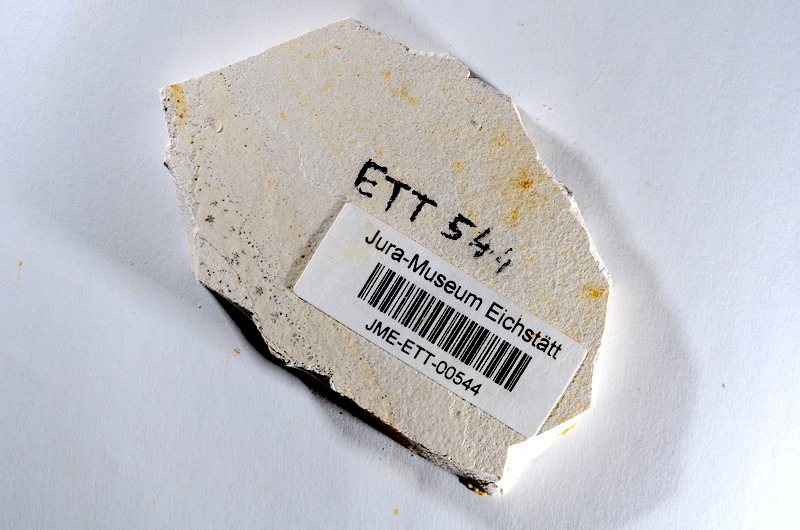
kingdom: Animalia
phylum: Chordata
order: Salmoniformes
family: Orthogonikleithridae
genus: Orthogonikleithrus
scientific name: Orthogonikleithrus hoelli
